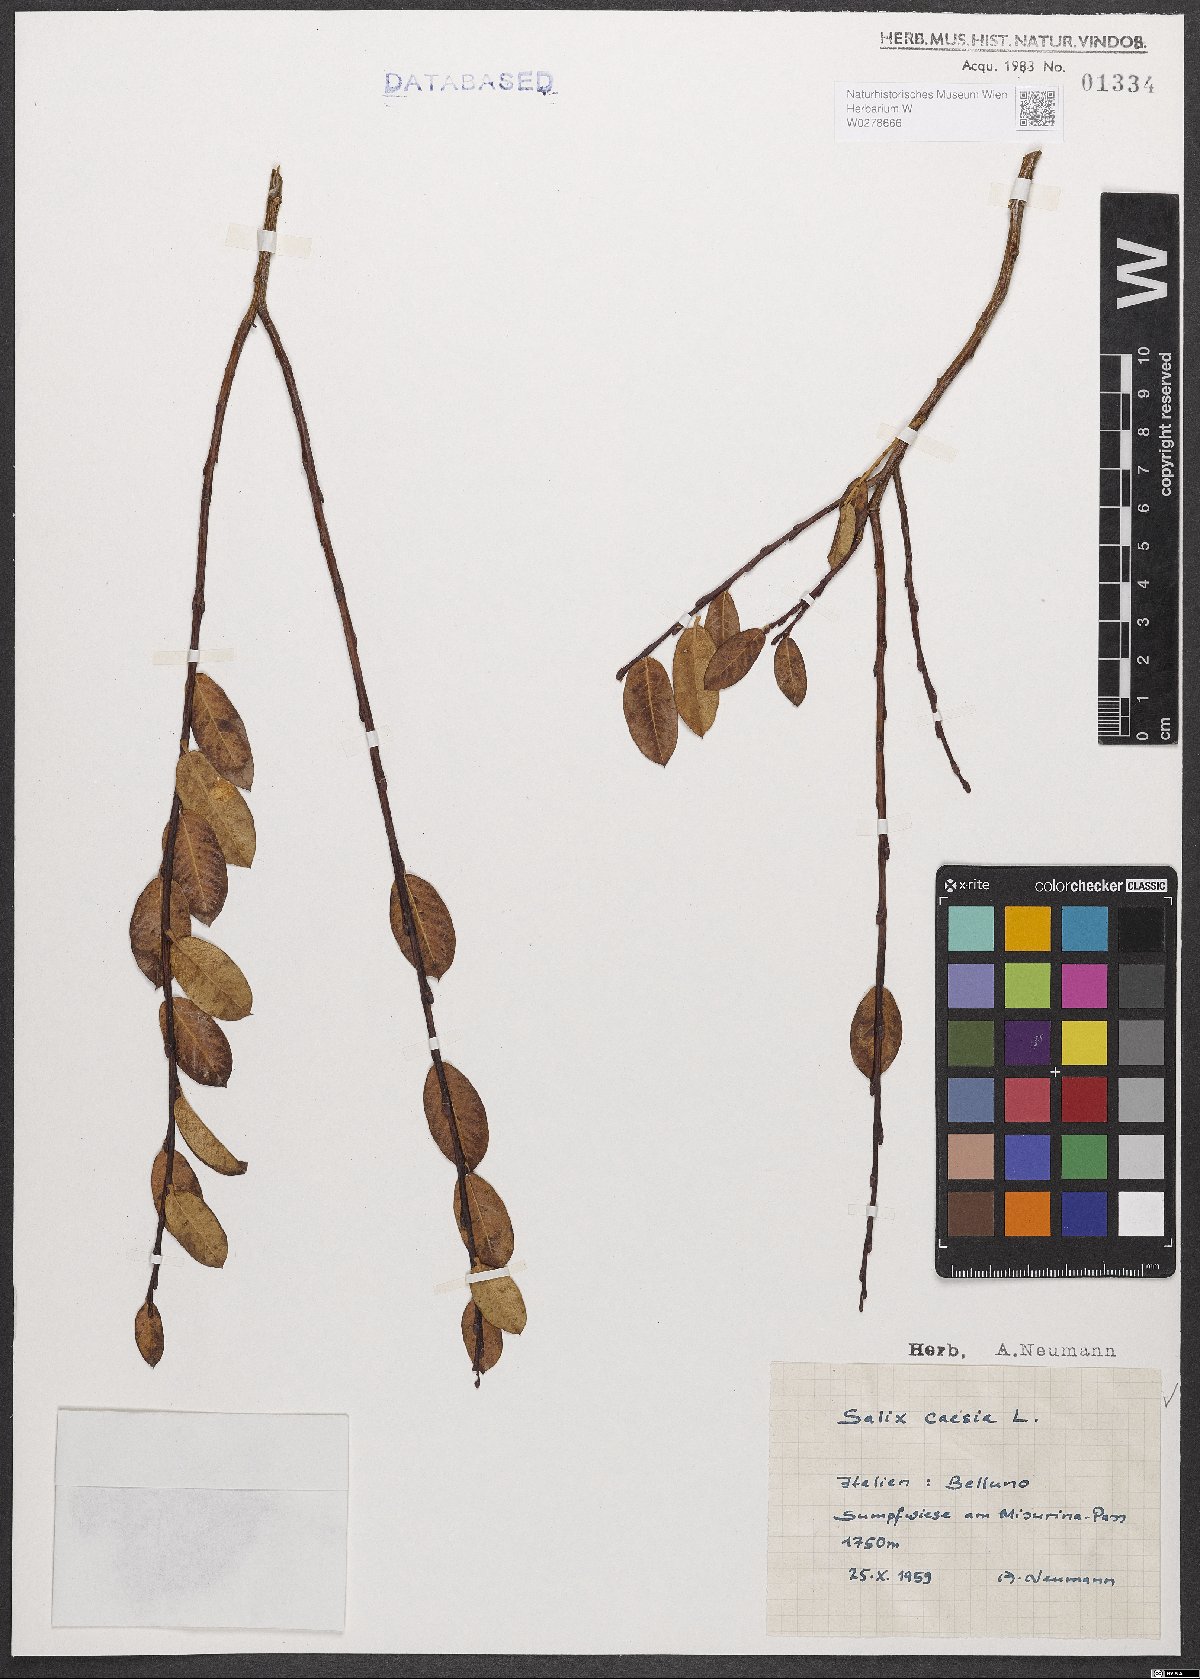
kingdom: Plantae
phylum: Tracheophyta
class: Magnoliopsida
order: Malpighiales
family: Salicaceae
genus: Salix
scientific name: Salix caesia
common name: Blue willow
